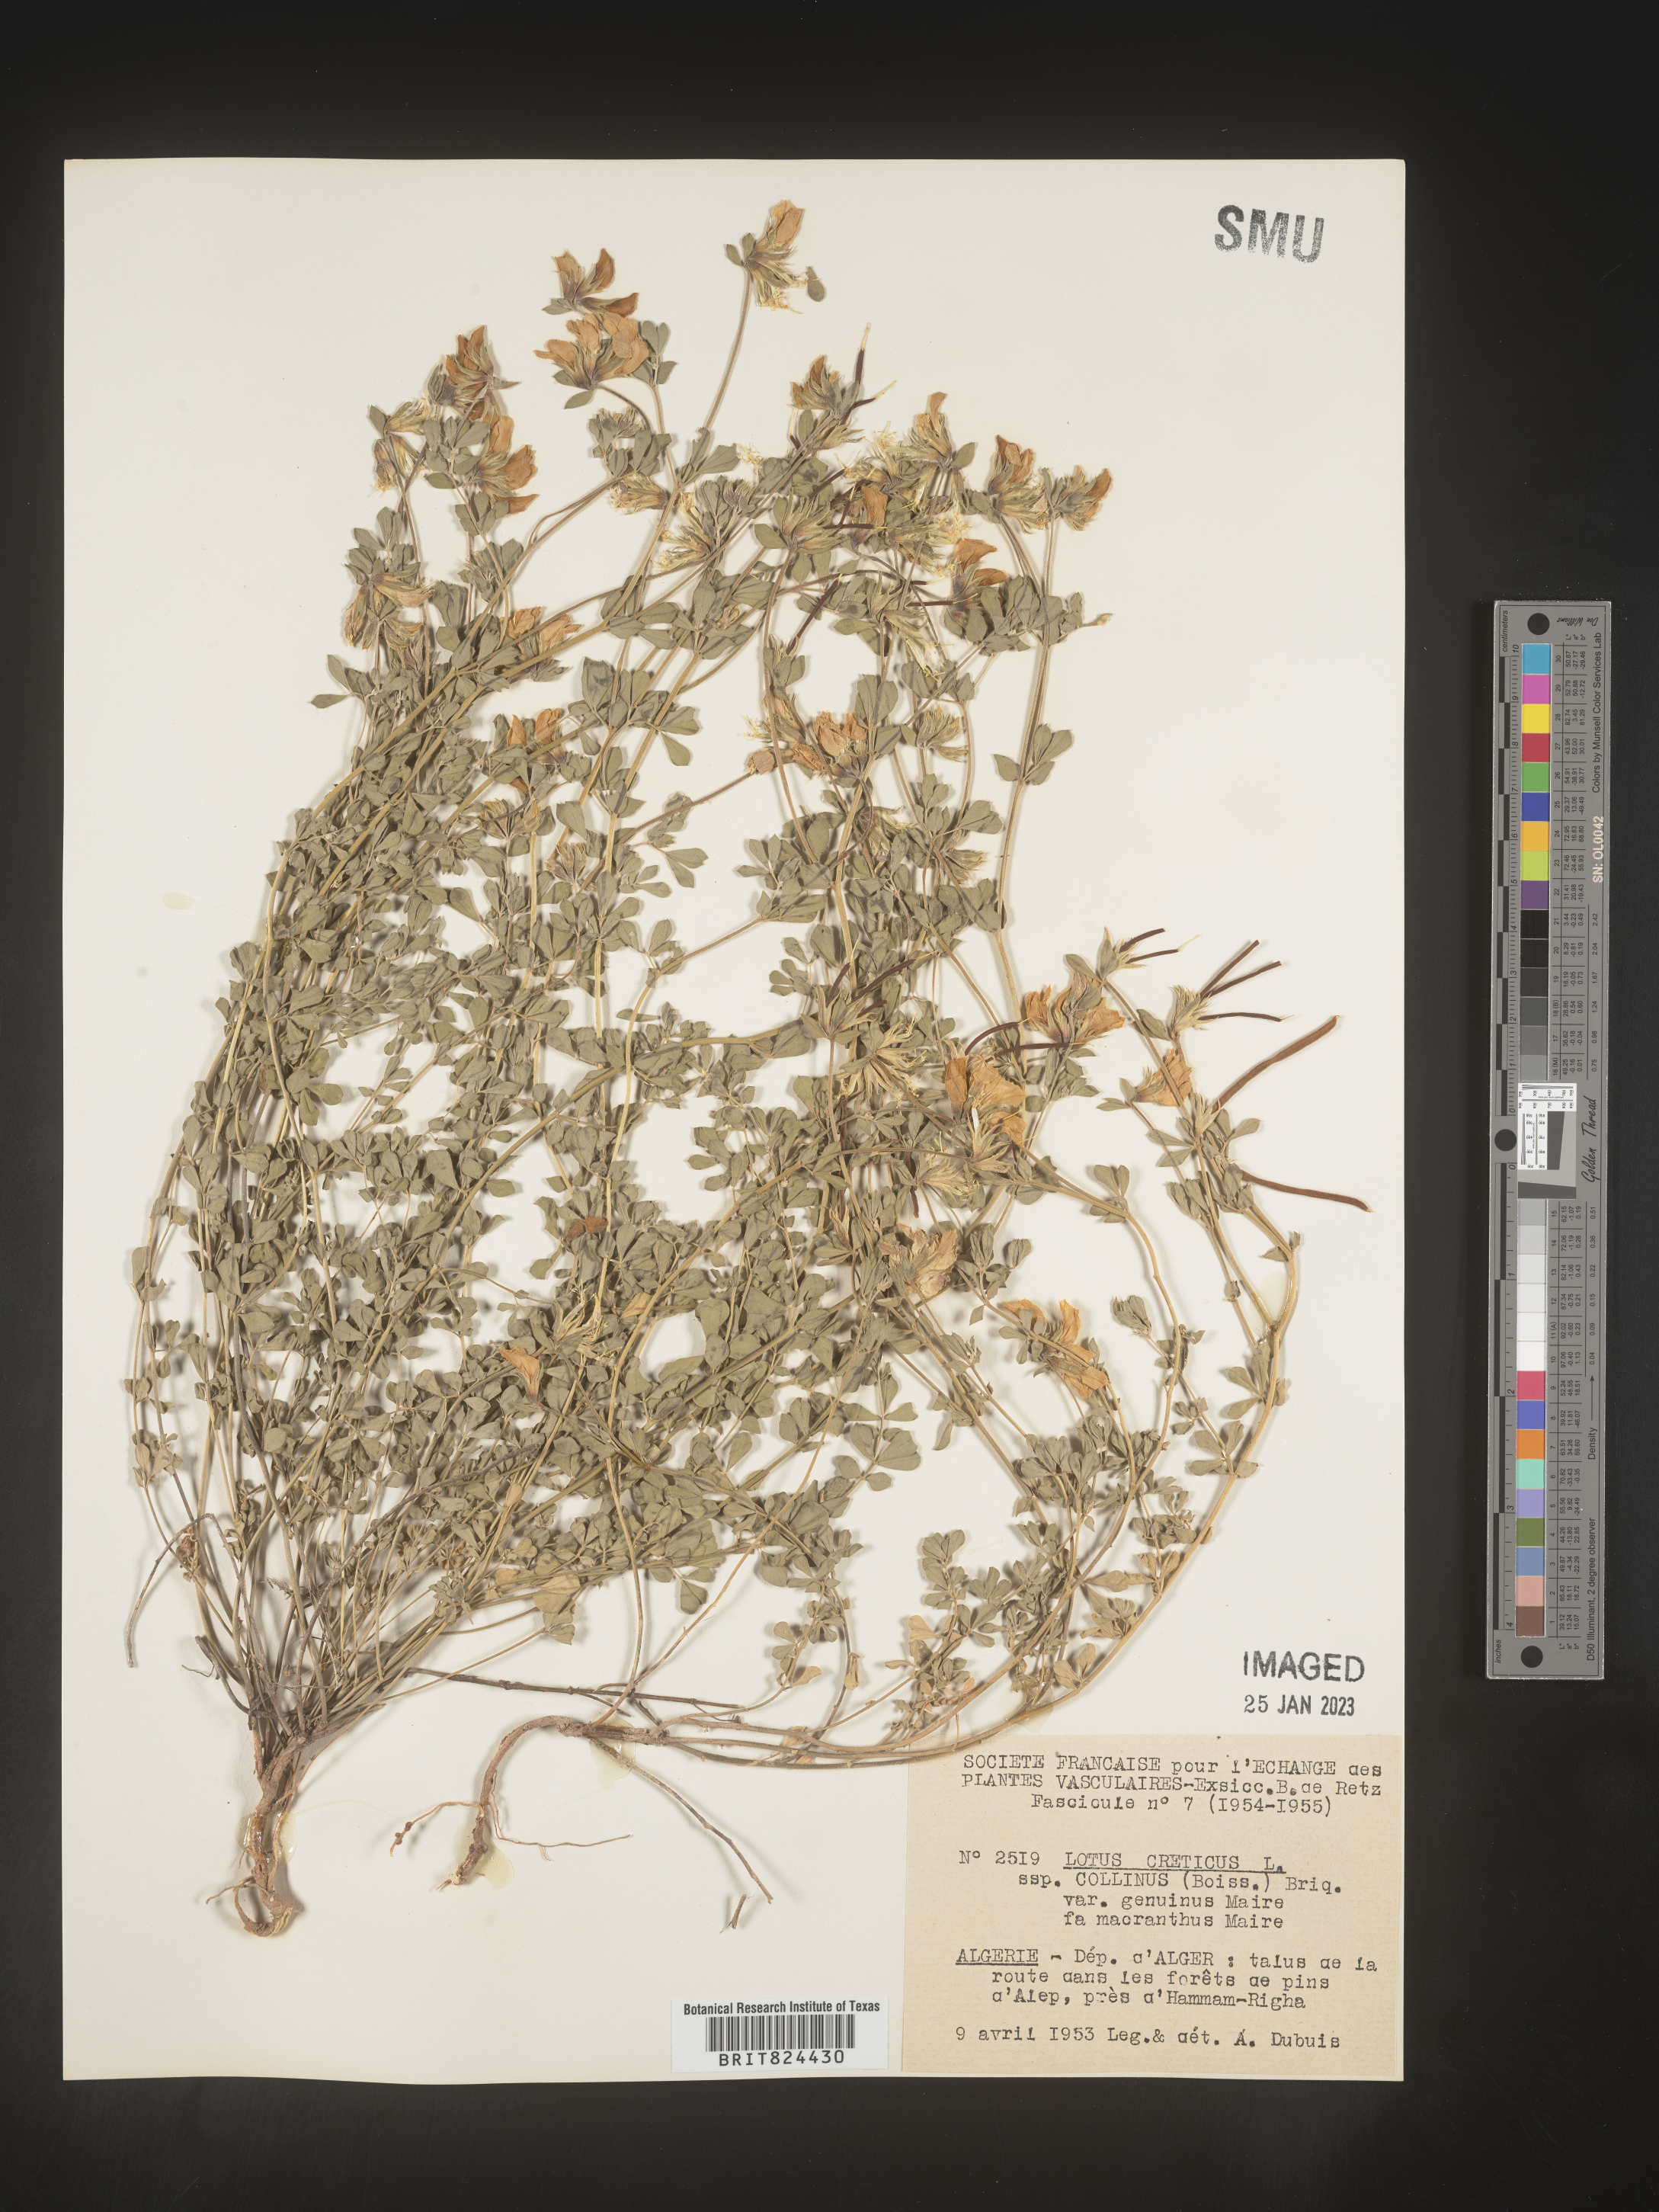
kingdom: Plantae
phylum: Tracheophyta
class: Magnoliopsida
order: Fabales
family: Fabaceae
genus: Lotus
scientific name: Lotus
